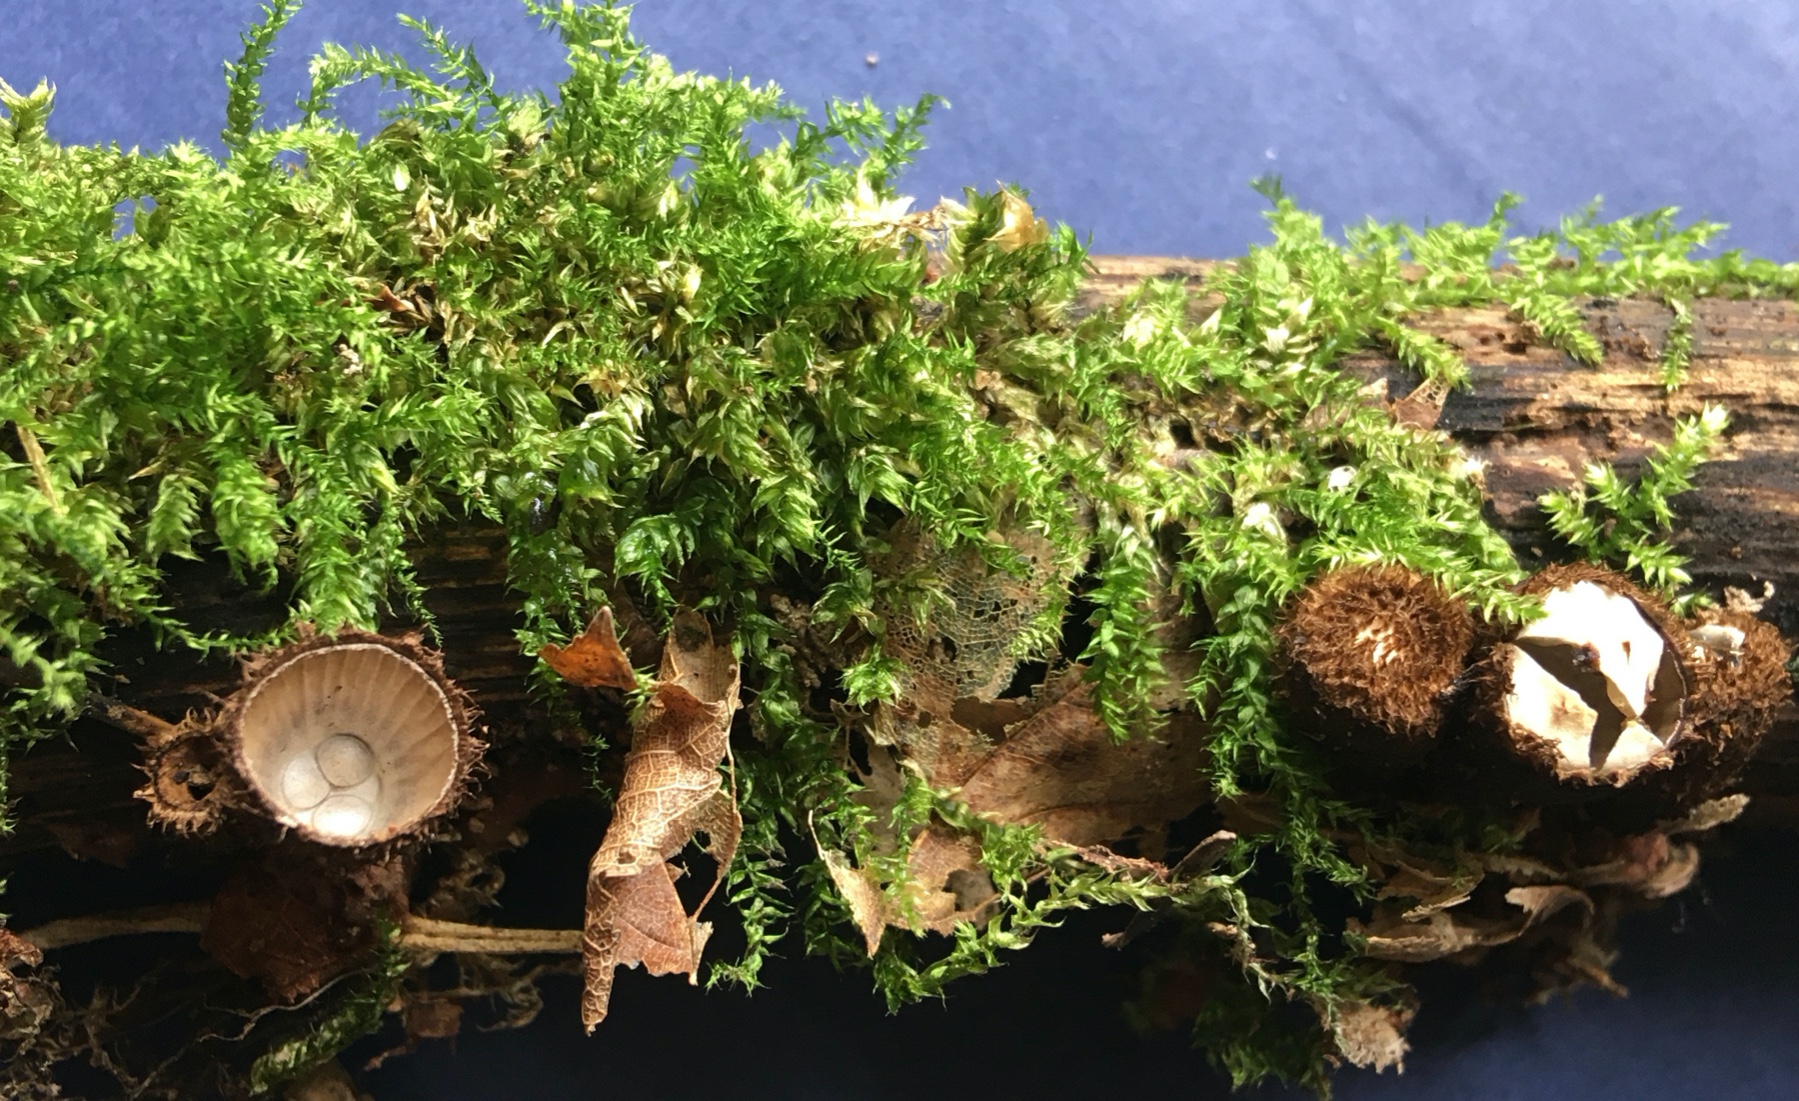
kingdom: Fungi
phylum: Basidiomycota
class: Agaricomycetes
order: Agaricales
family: Agaricaceae
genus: Cyathus
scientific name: Cyathus striatus
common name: stribet redesvamp
